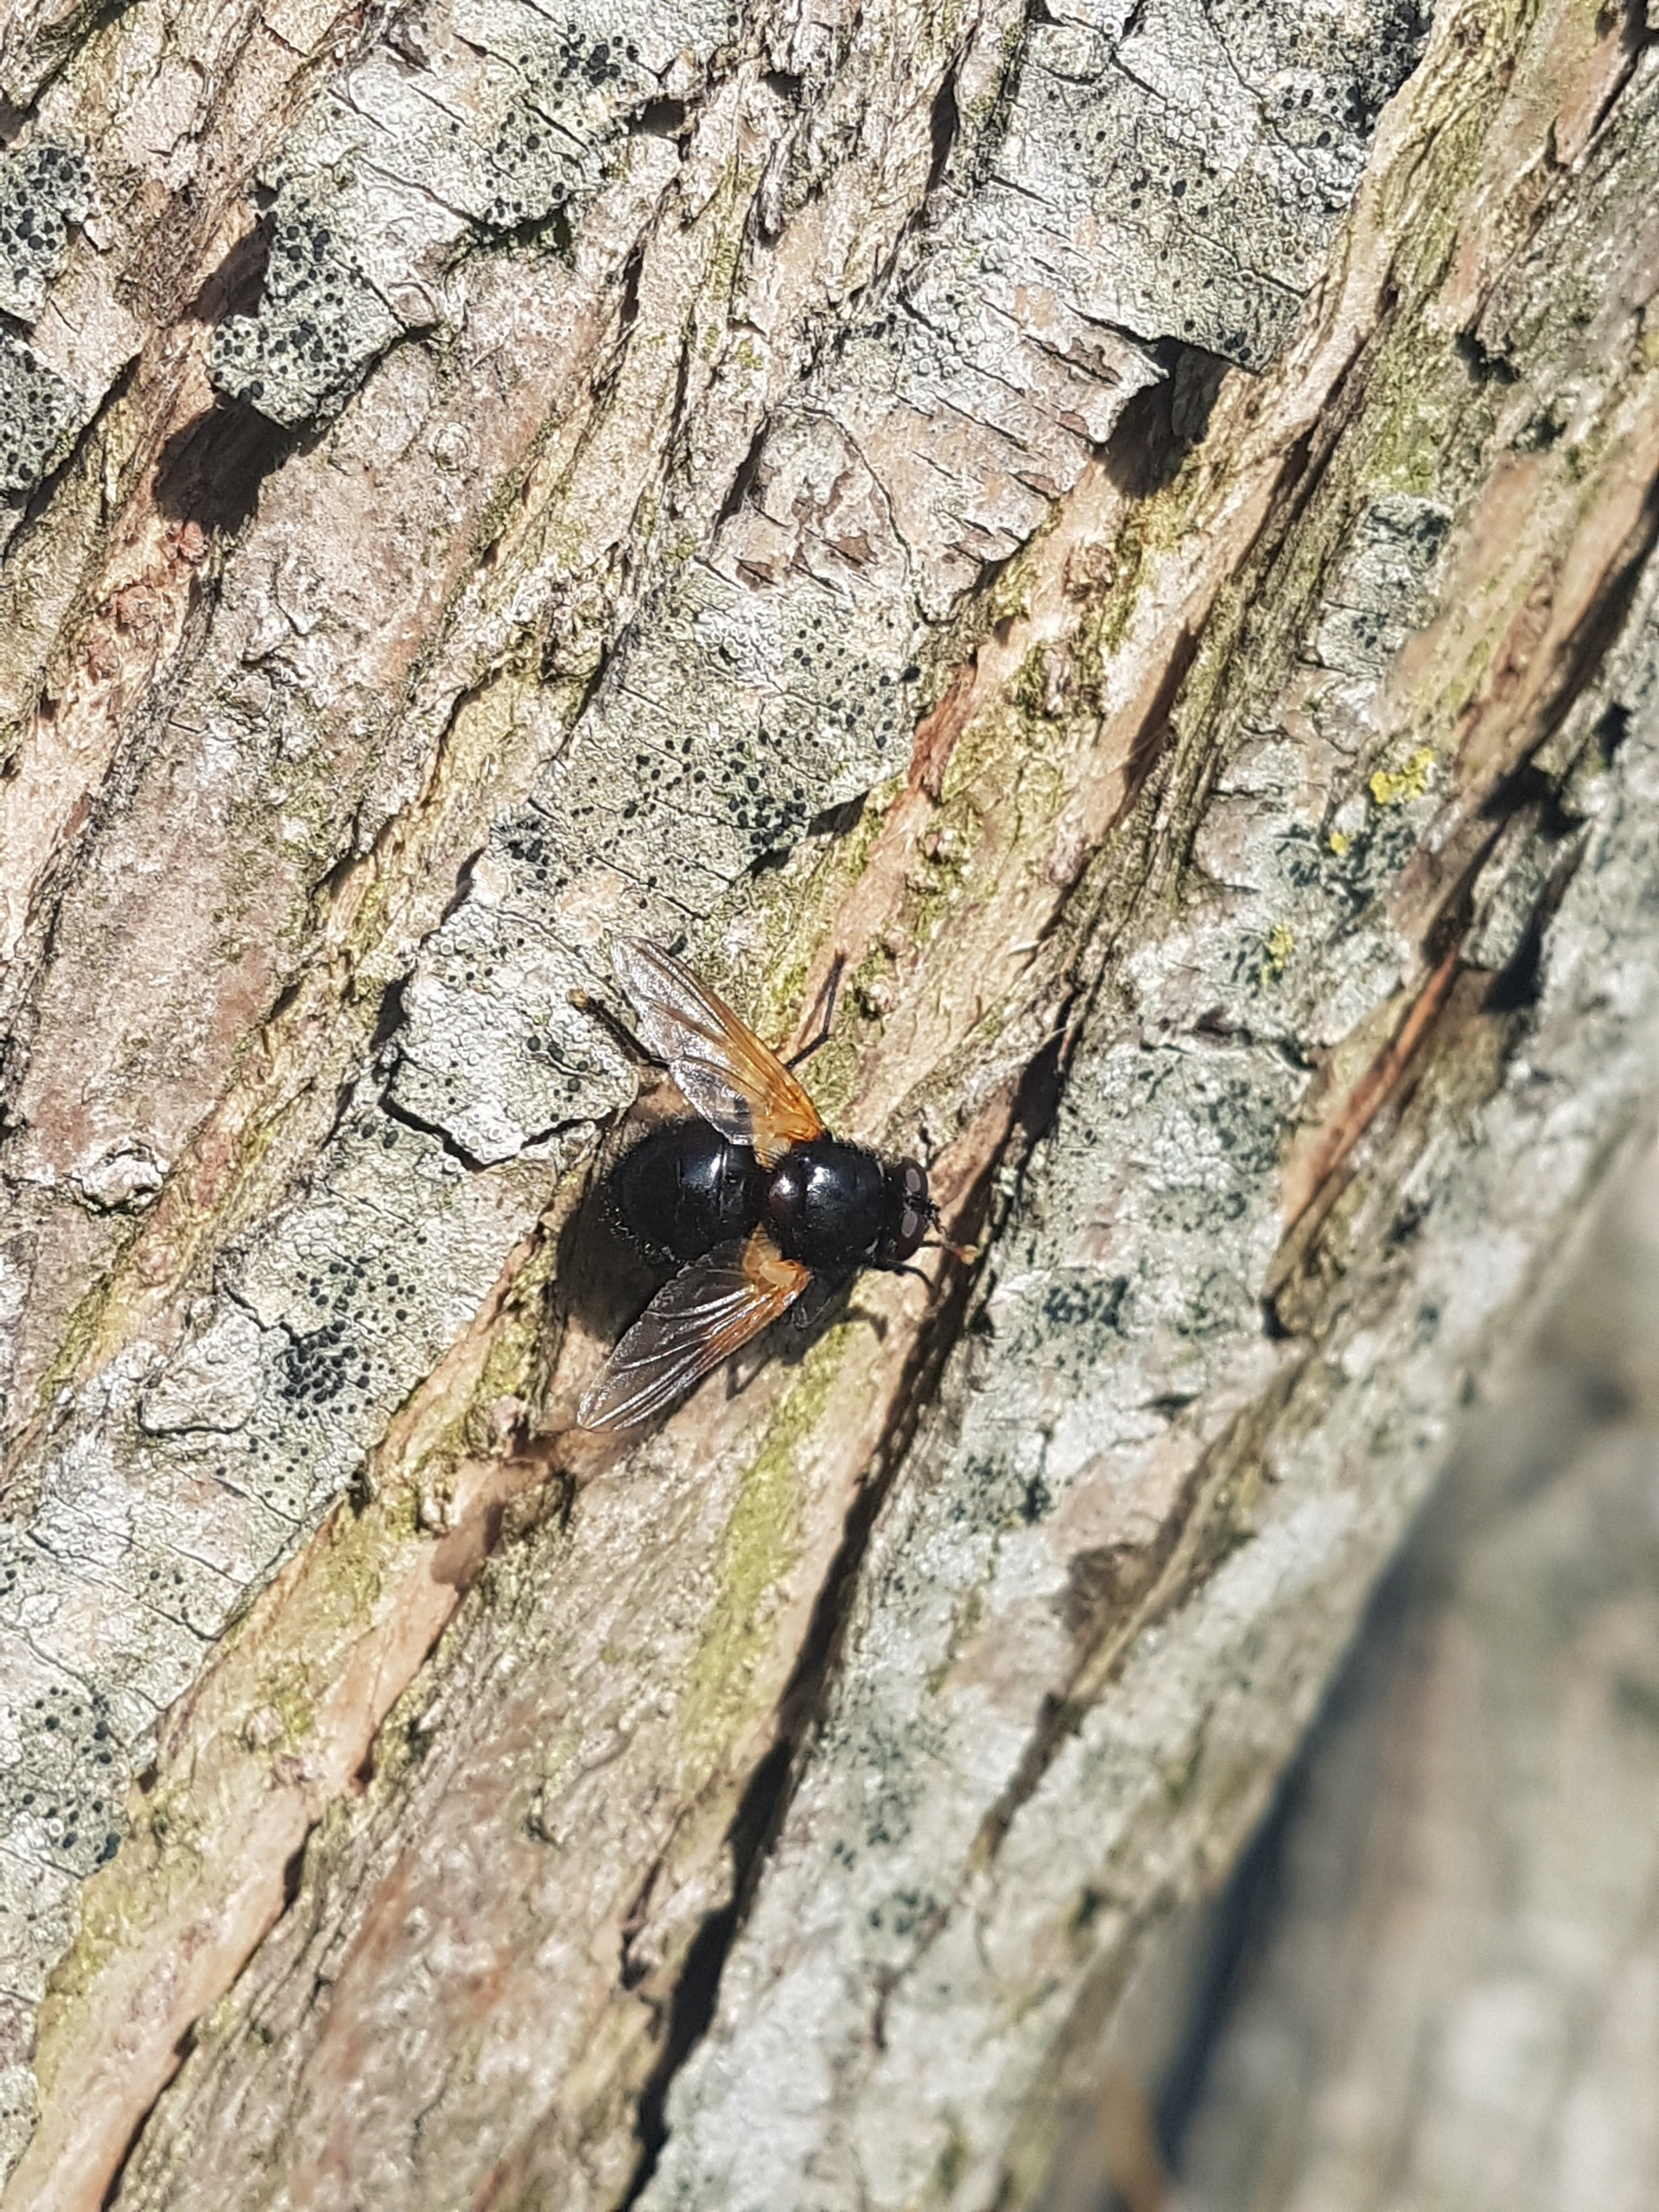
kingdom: Animalia
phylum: Arthropoda
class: Insecta
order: Diptera
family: Muscidae
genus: Mesembrina
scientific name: Mesembrina meridiana
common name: Gulvinget flue
